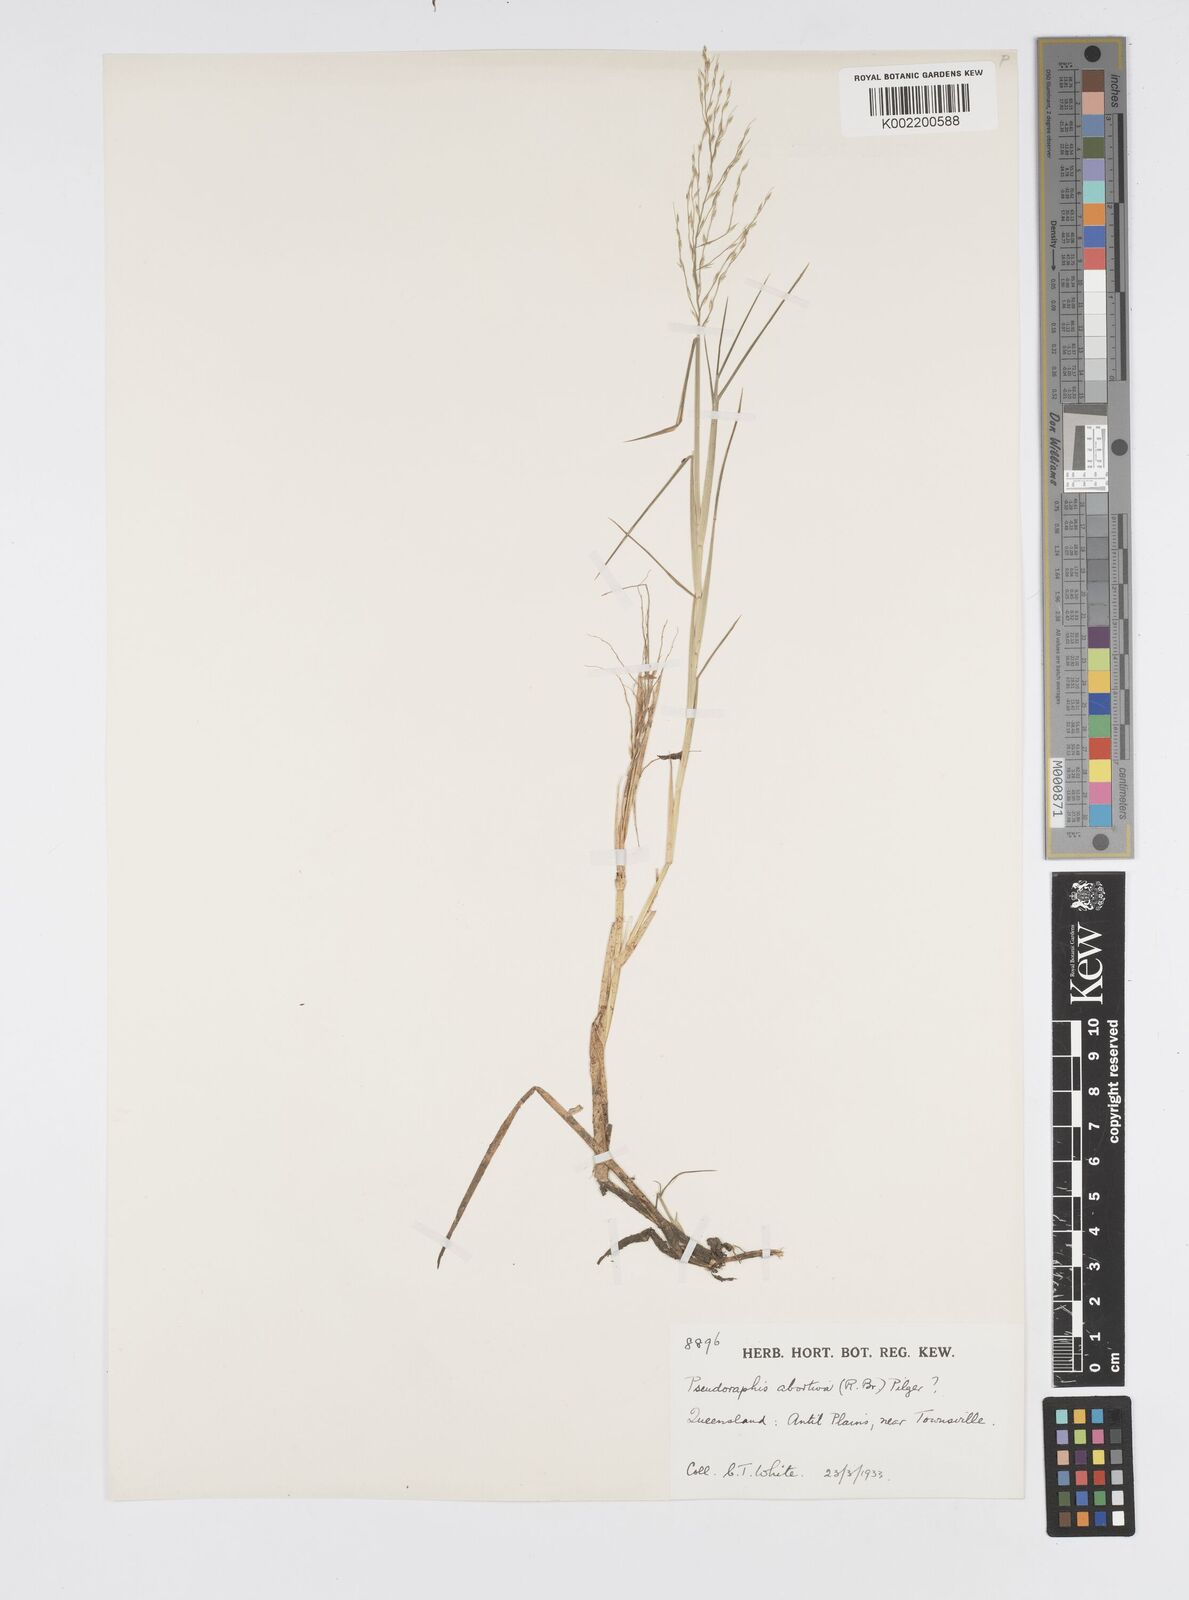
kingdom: Plantae
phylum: Tracheophyta
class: Liliopsida
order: Poales
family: Poaceae
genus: Pseudoraphis
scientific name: Pseudoraphis spinescens
